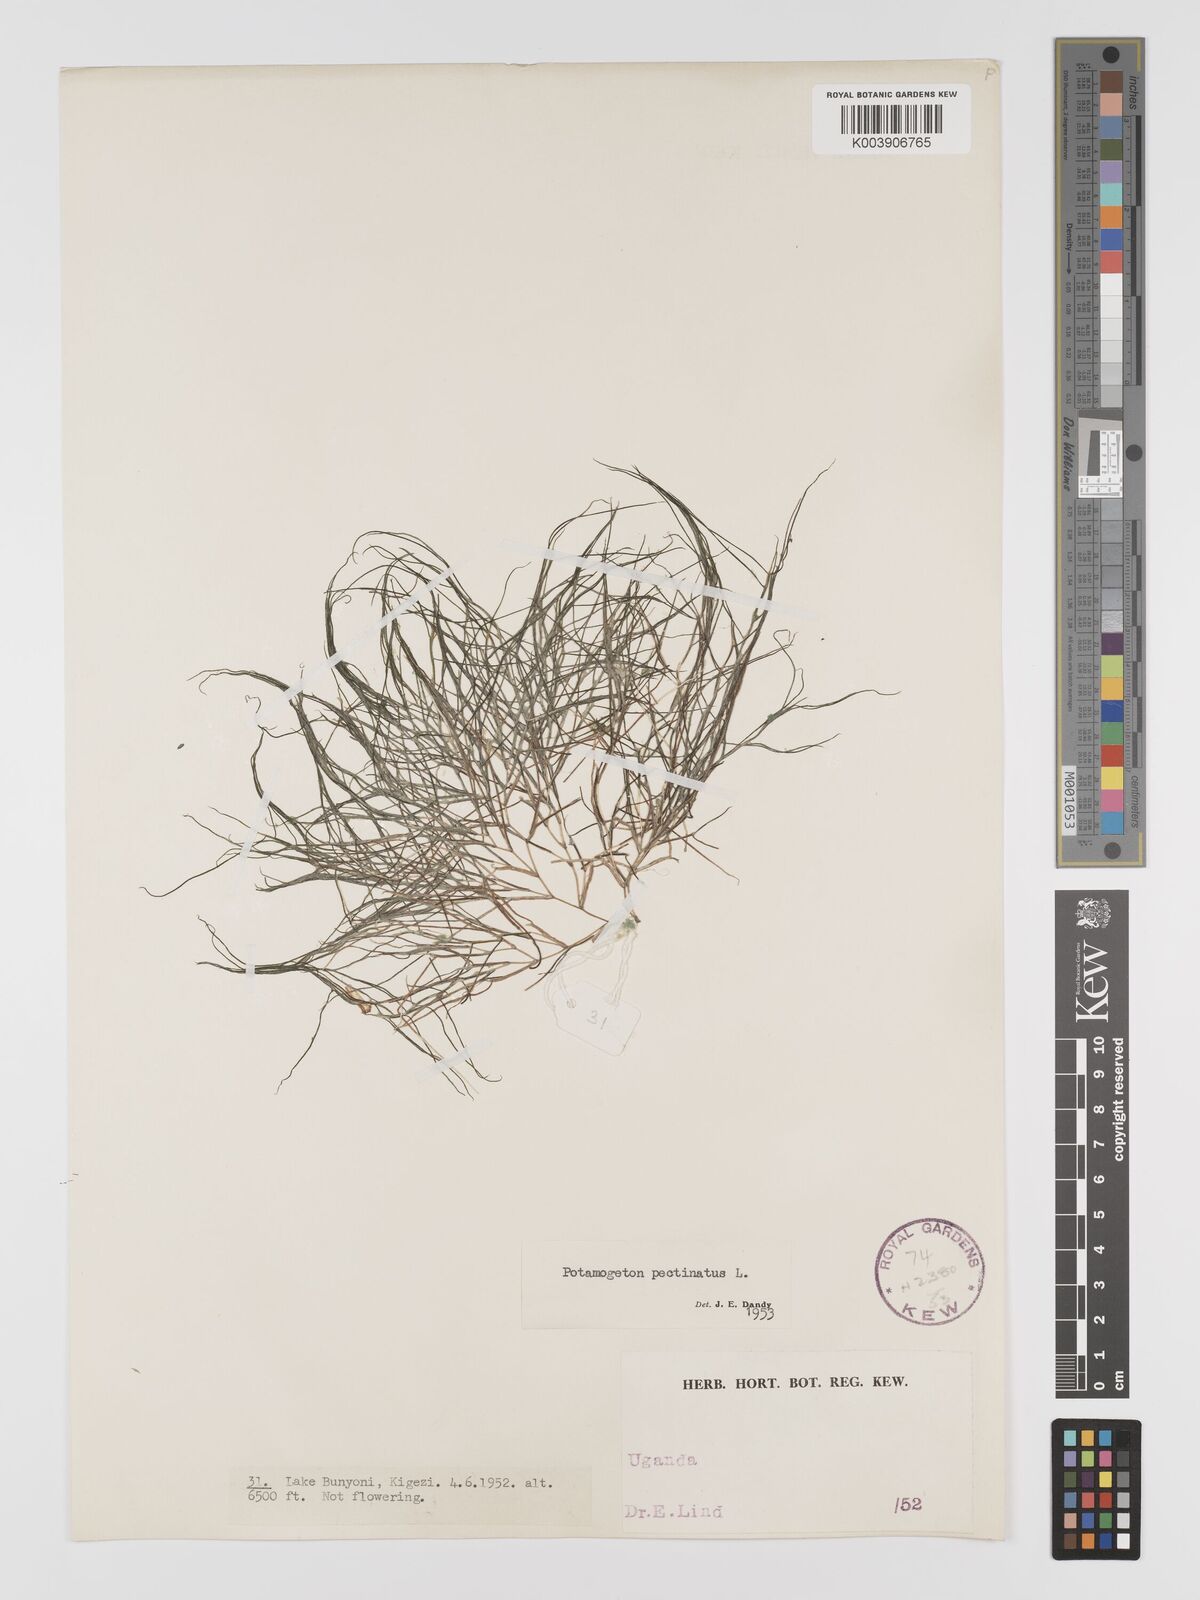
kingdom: Plantae
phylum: Tracheophyta
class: Liliopsida
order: Alismatales
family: Potamogetonaceae
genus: Stuckenia
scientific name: Stuckenia pectinata
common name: Sago pondweed
